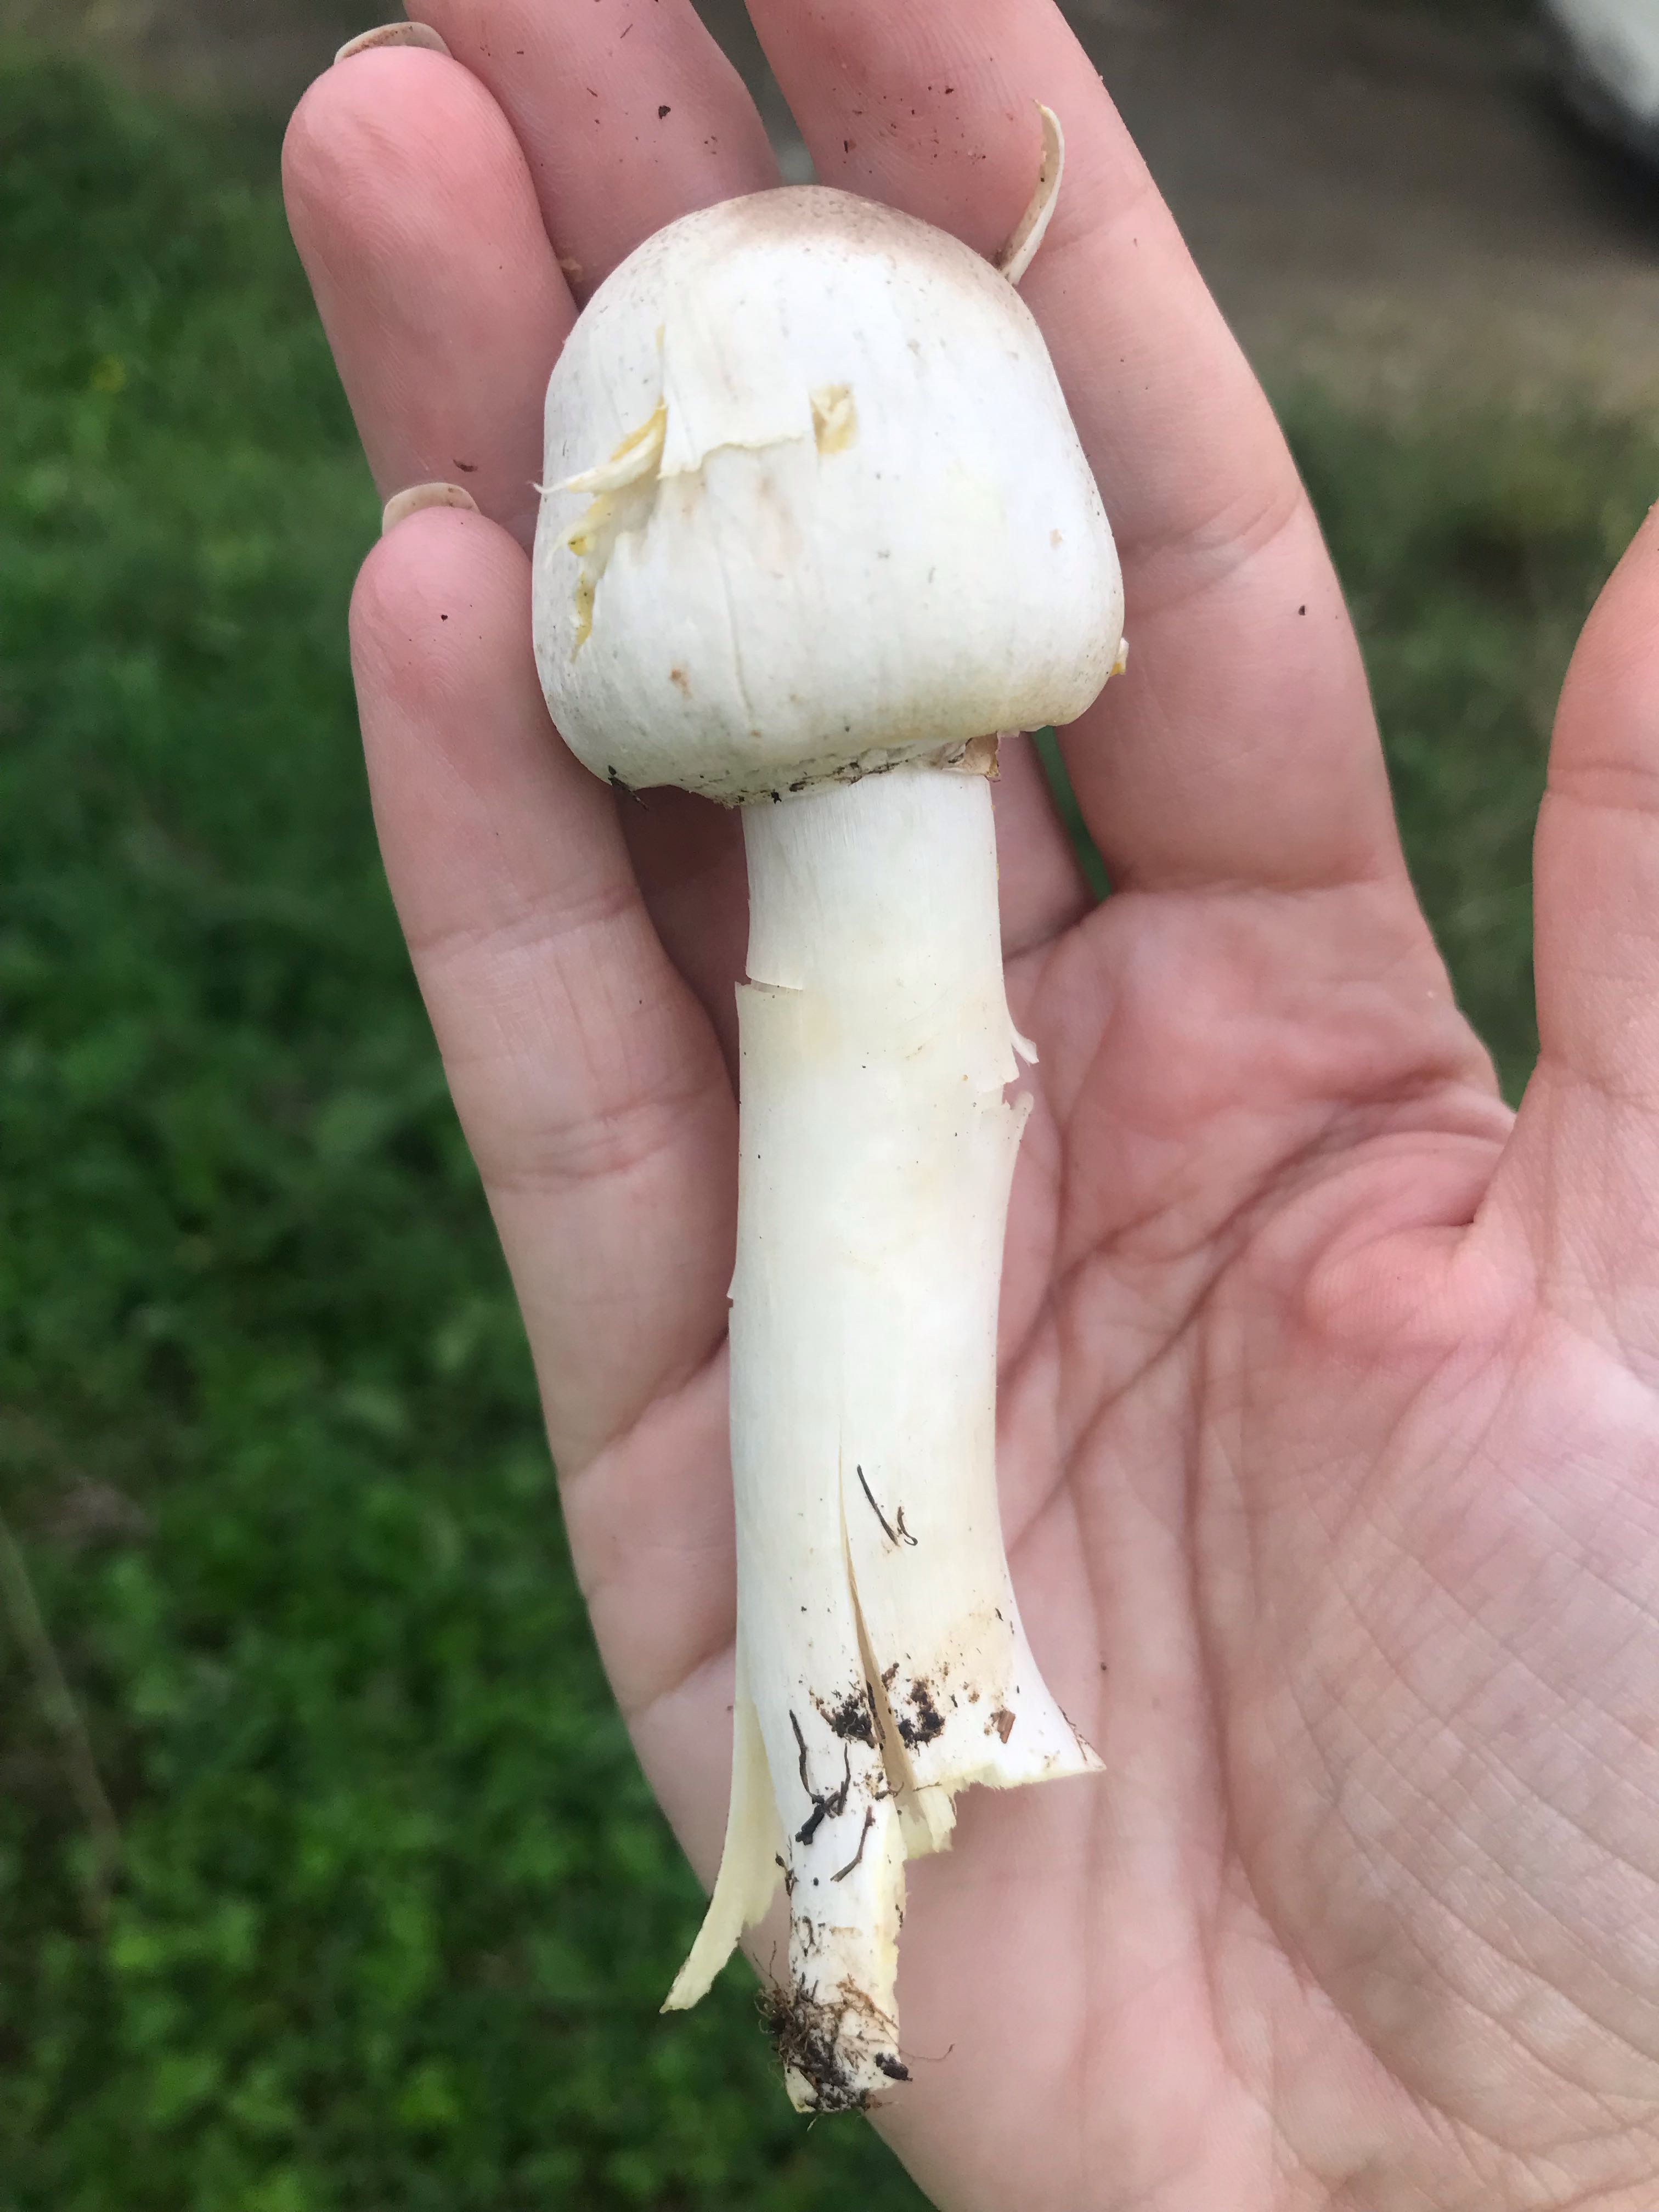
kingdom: Fungi
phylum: Basidiomycota
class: Agaricomycetes
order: Agaricales
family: Agaricaceae
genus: Agaricus
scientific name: Agaricus xanthodermus
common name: karbol-champignon
